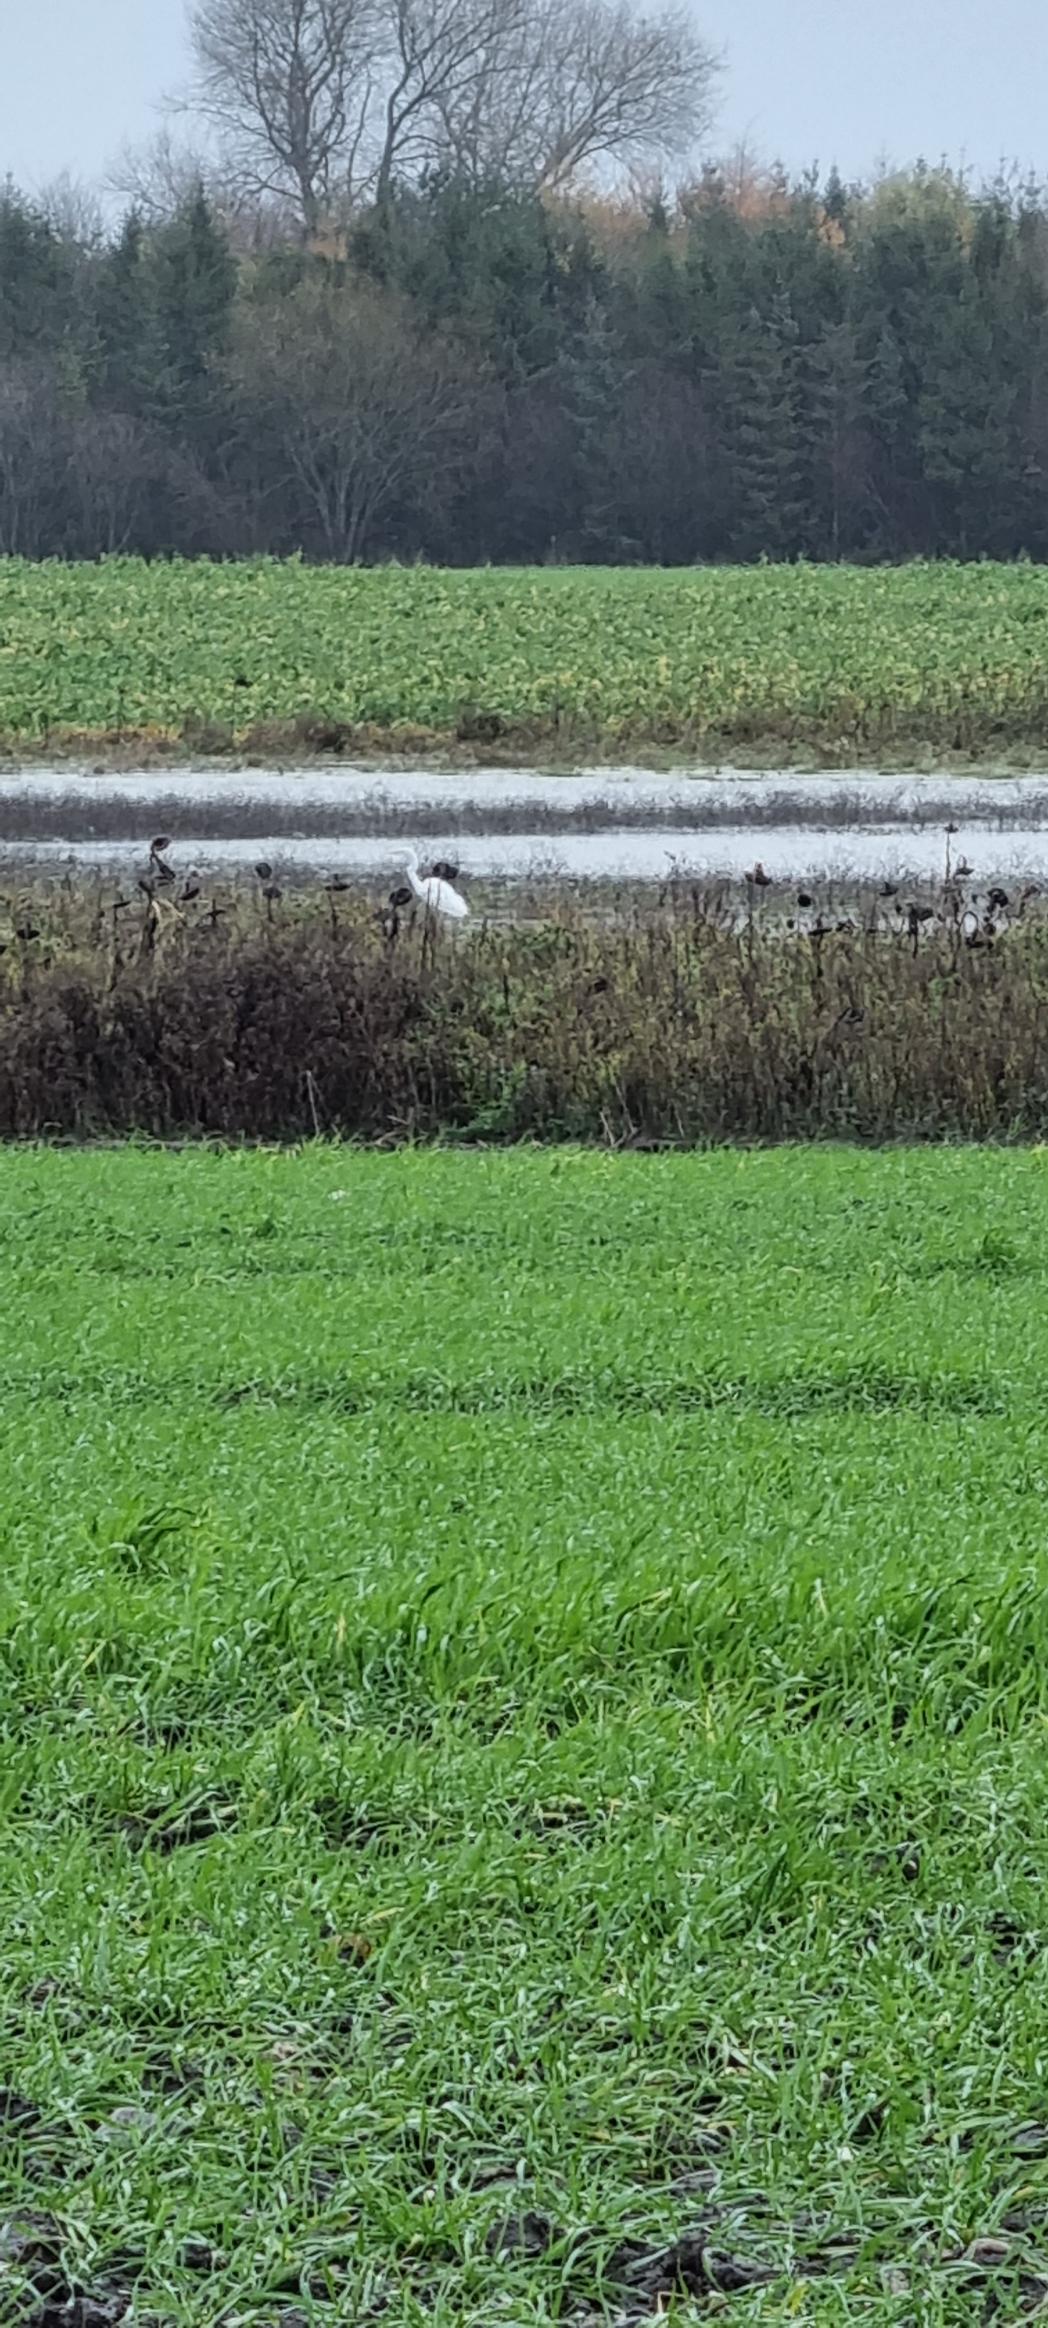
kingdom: Animalia
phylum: Chordata
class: Aves
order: Pelecaniformes
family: Ardeidae
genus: Ardea
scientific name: Ardea alba
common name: Sølvhejre
